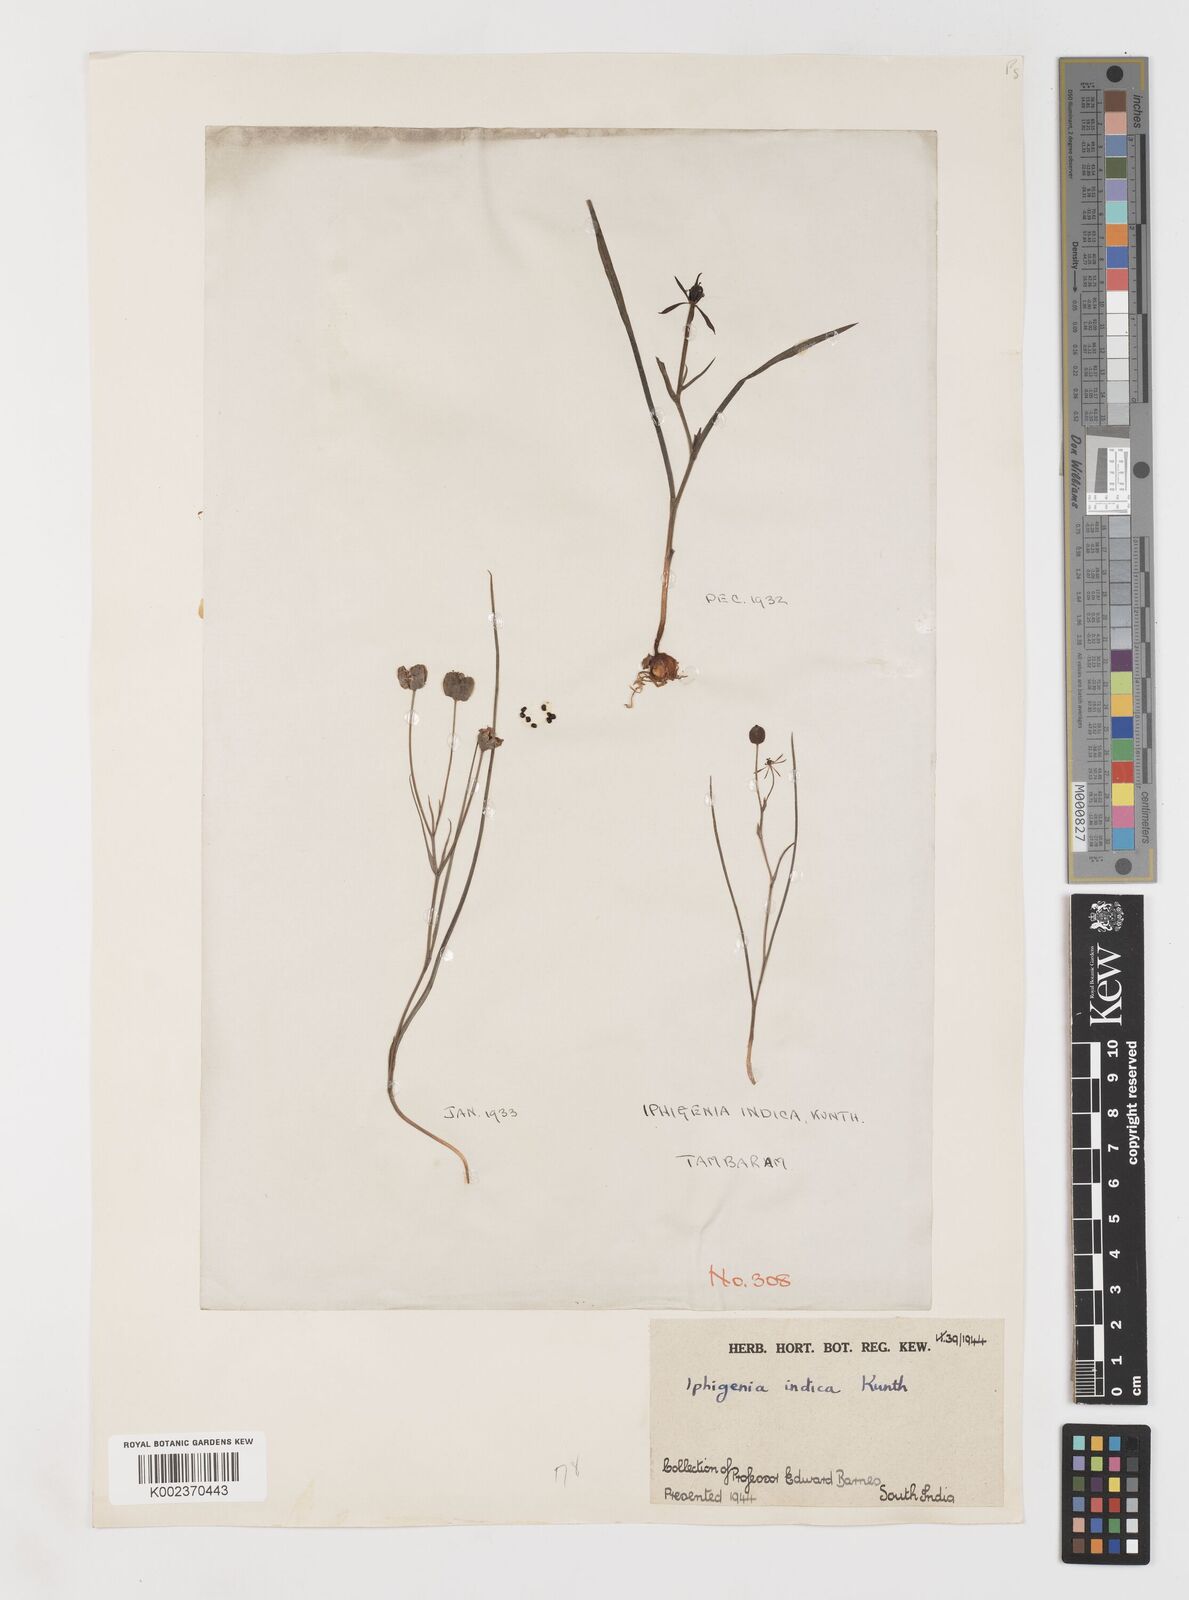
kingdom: Plantae
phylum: Tracheophyta
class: Liliopsida
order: Liliales
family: Colchicaceae
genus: Iphigenia
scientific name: Iphigenia indica
